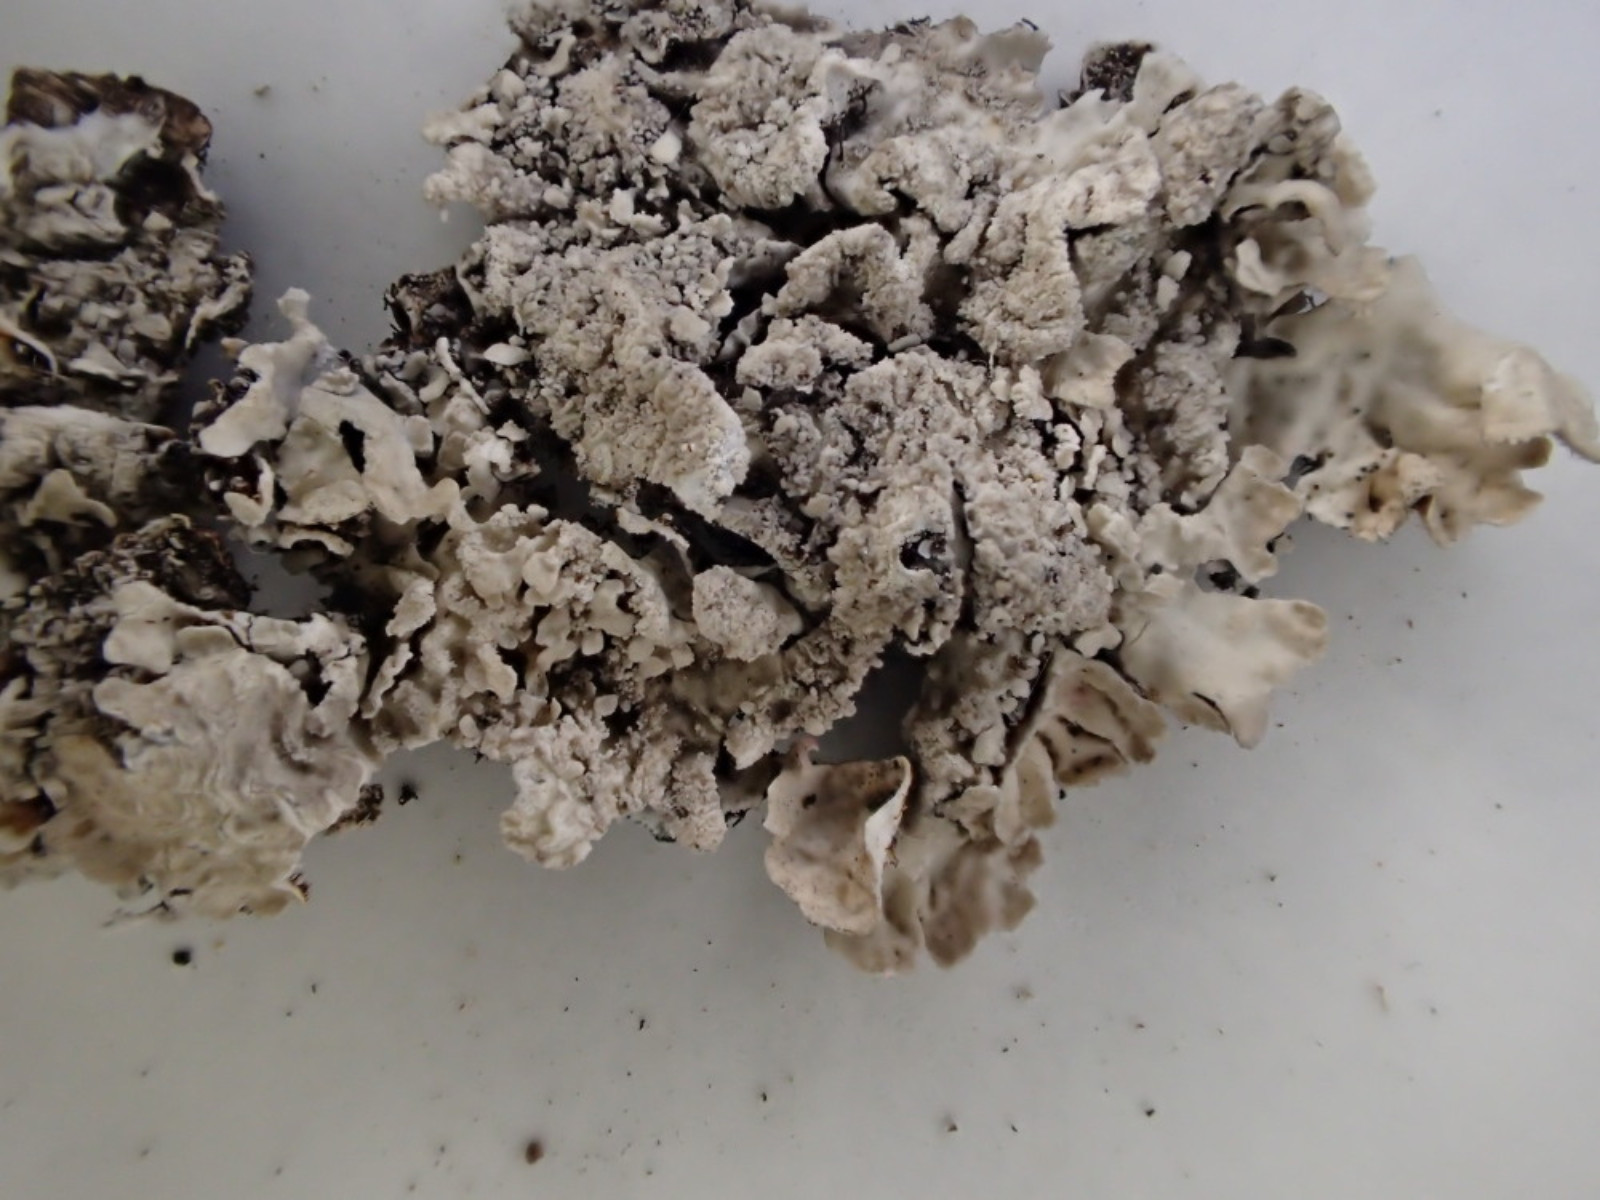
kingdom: Fungi
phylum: Ascomycota
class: Lecanoromycetes
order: Lecanorales
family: Parmeliaceae
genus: Parmelia
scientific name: Parmelia sulcata
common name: rynket skållav
